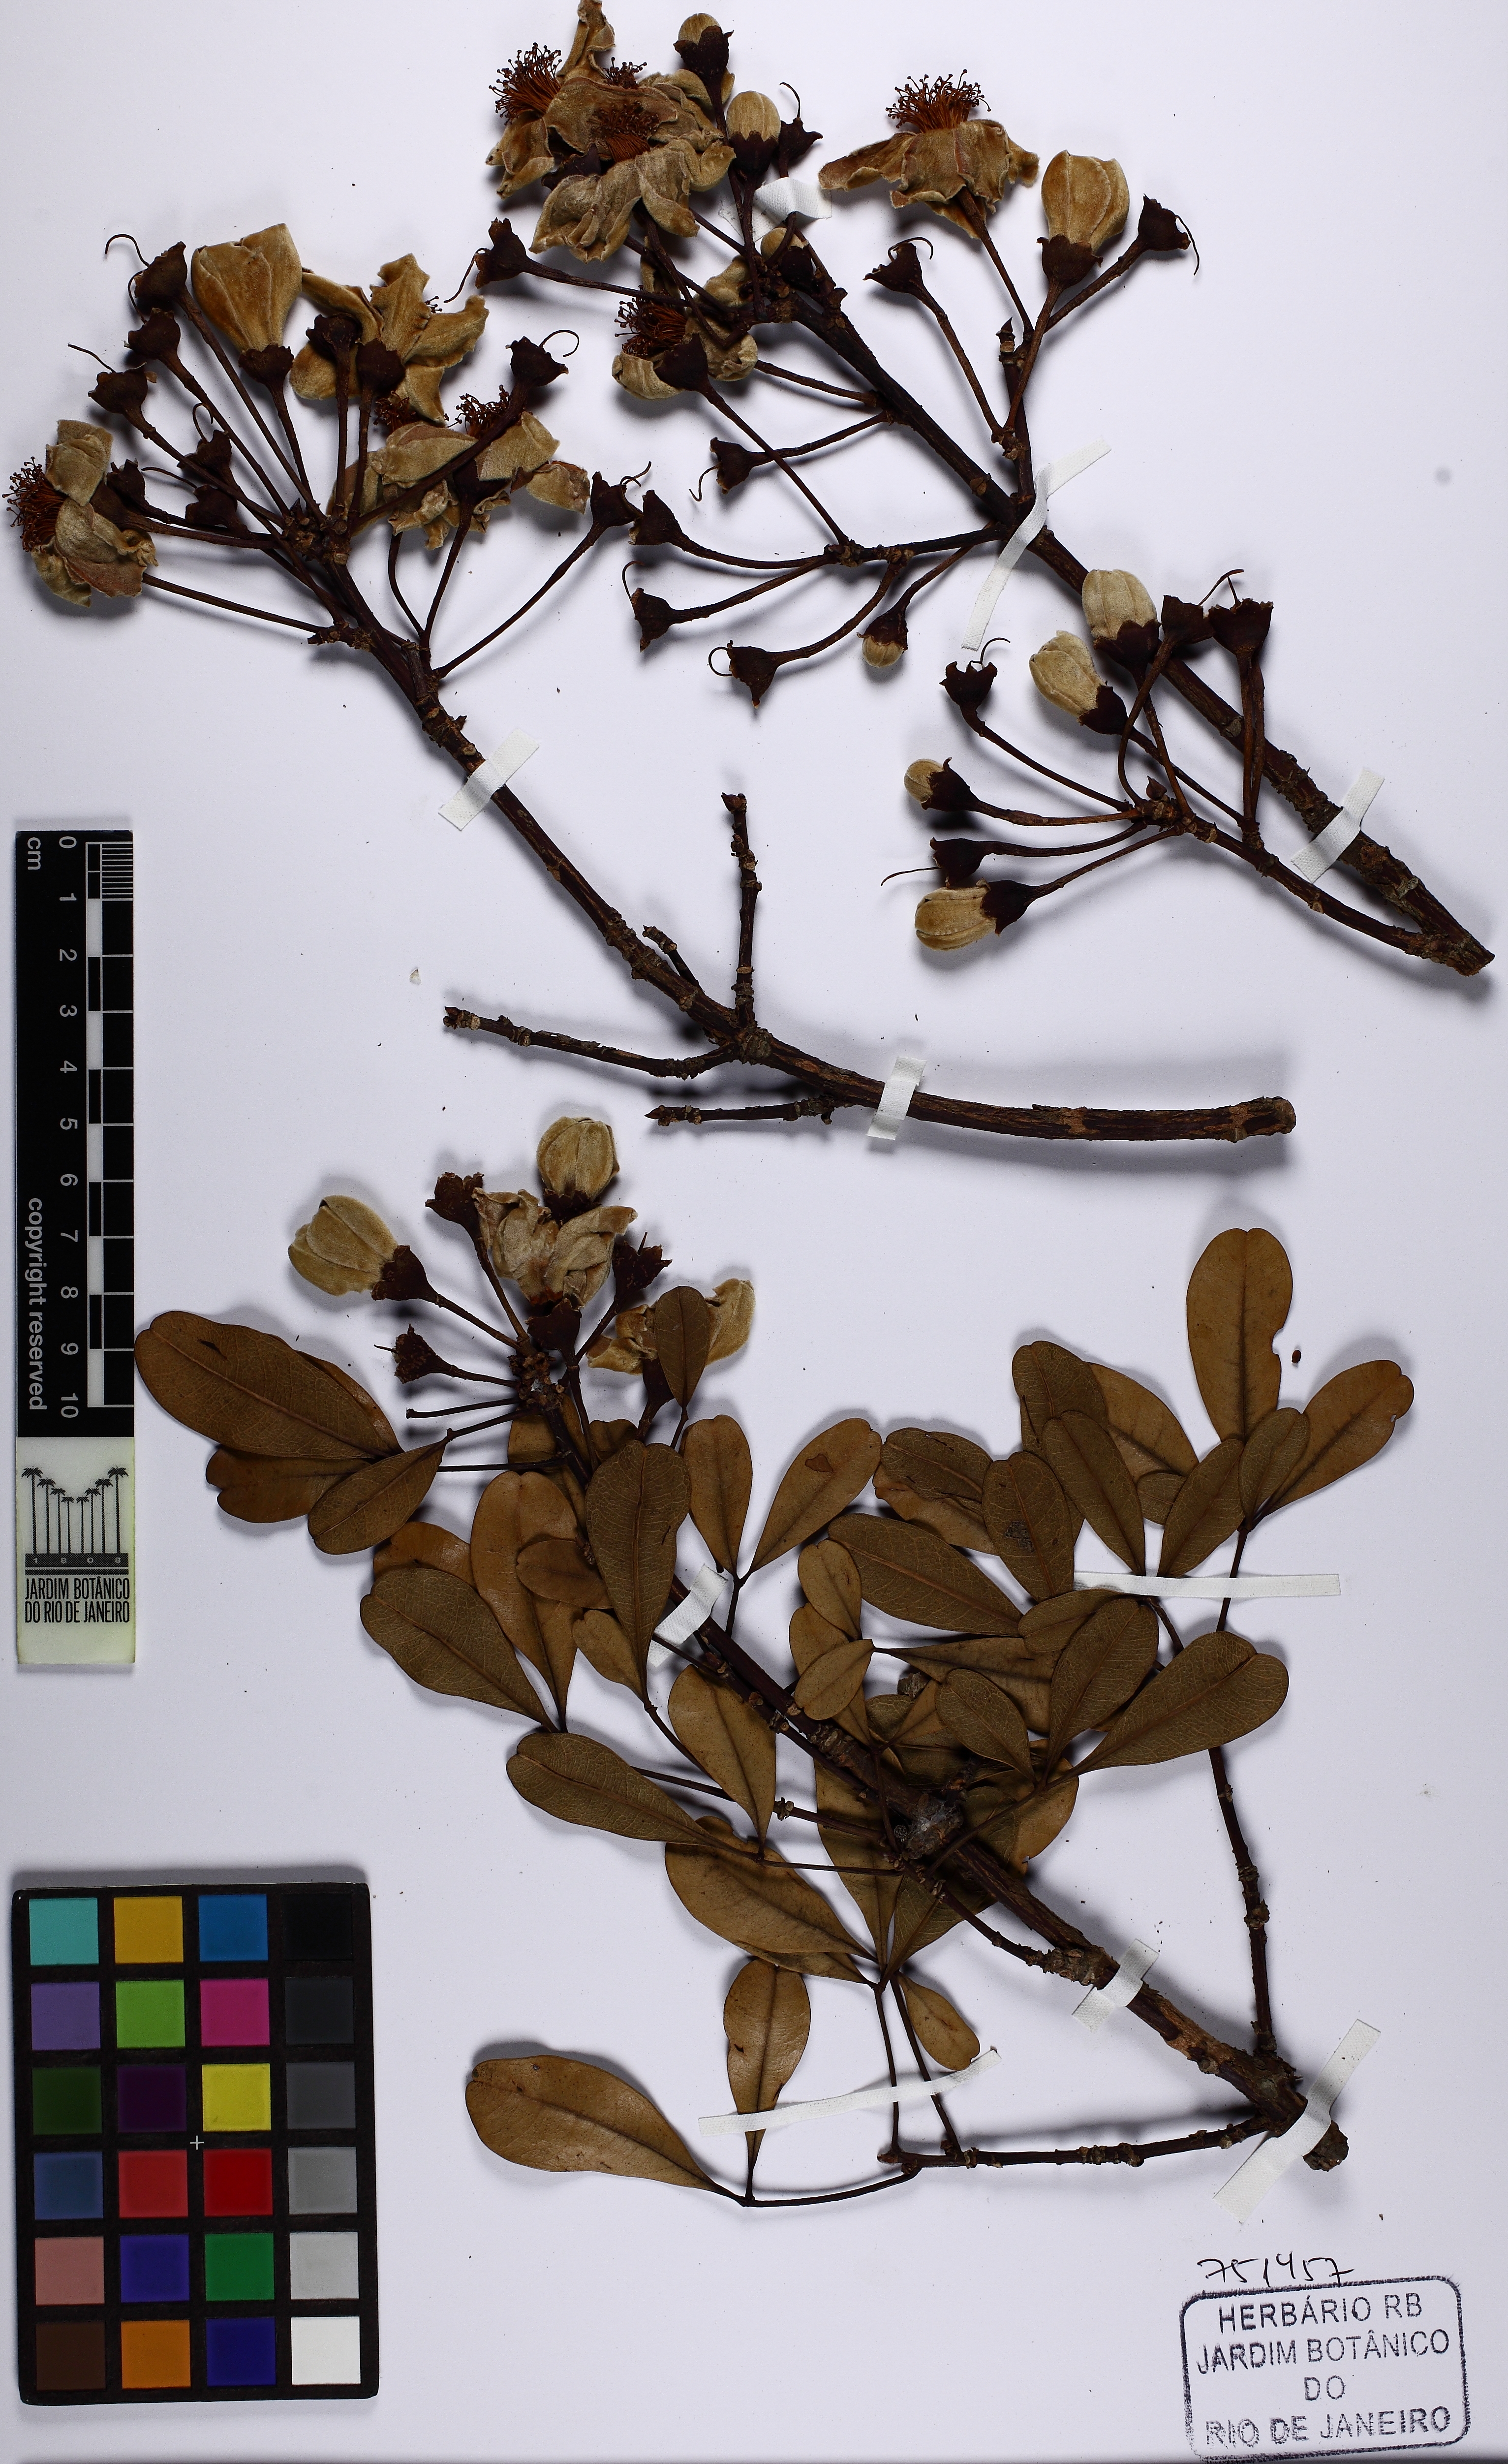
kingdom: Plantae
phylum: Tracheophyta
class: Magnoliopsida
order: Malvales
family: Malvaceae
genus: Eriotheca
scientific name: Eriotheca gracilipes
